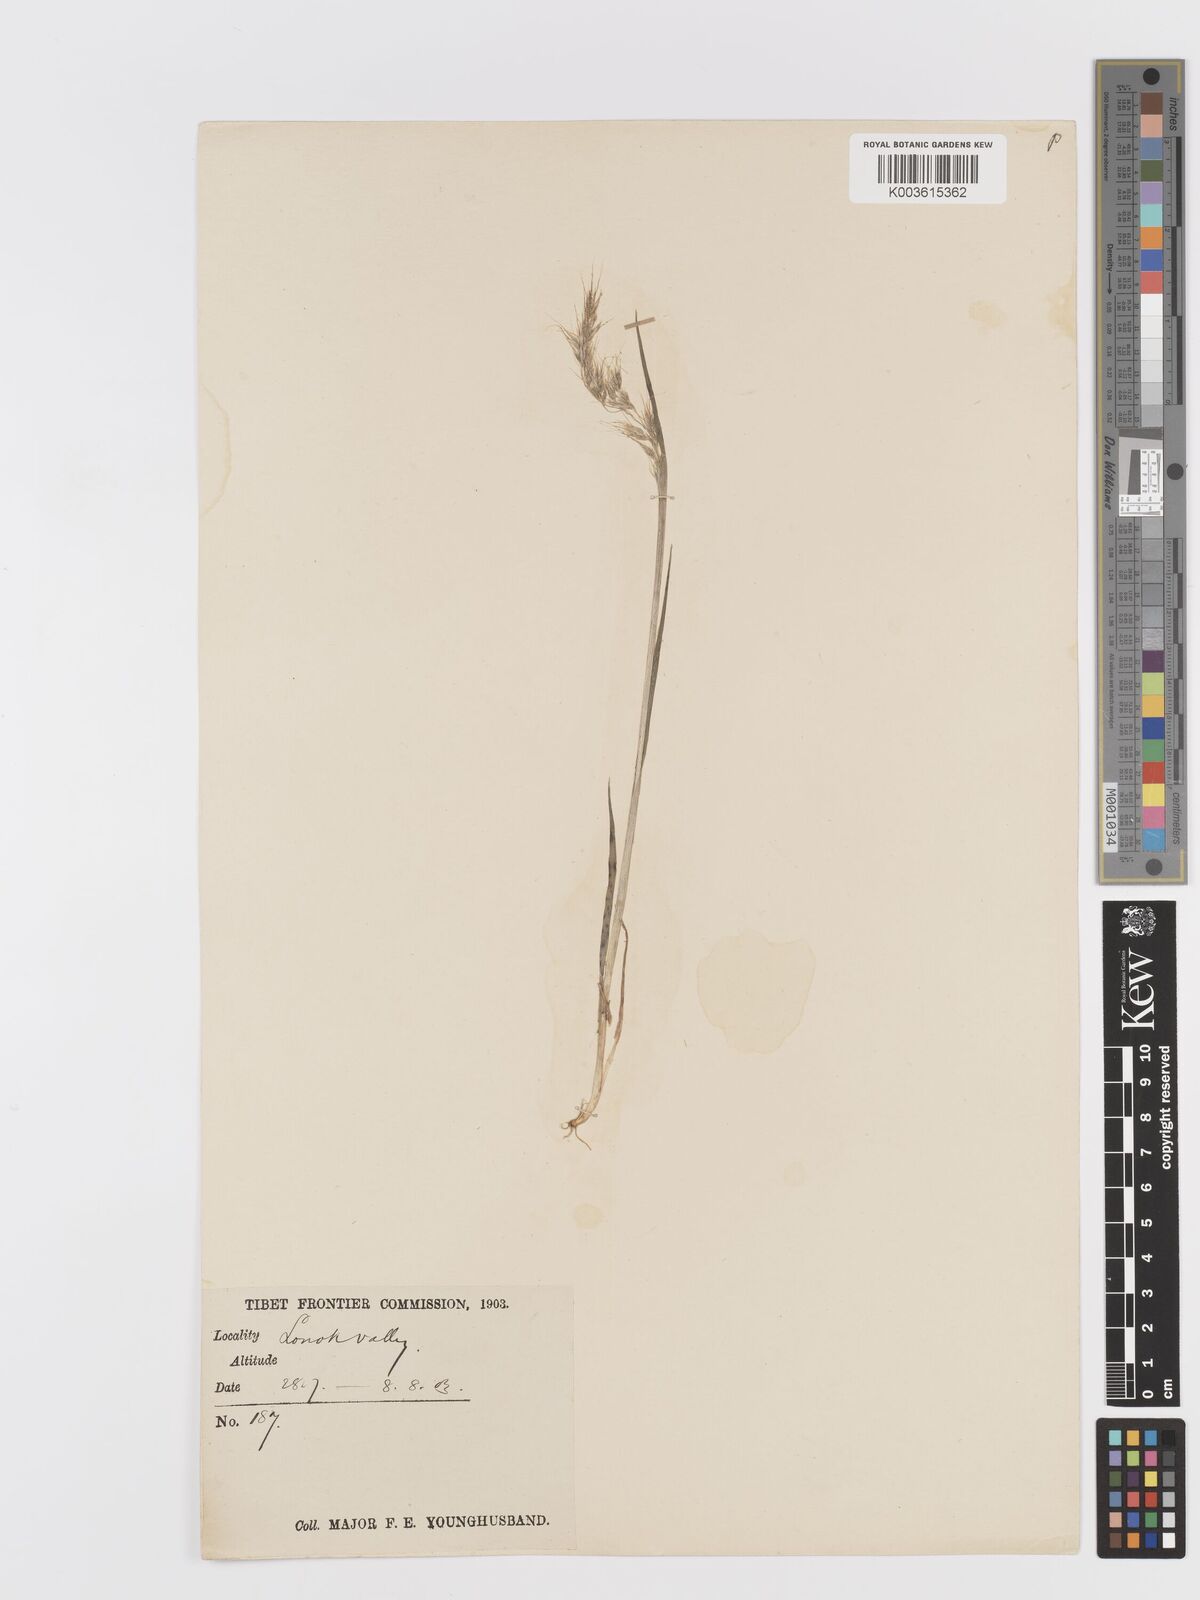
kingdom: Plantae
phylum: Tracheophyta
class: Liliopsida
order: Poales
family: Poaceae
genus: Sibirotrisetum
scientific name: Sibirotrisetum scitulum
